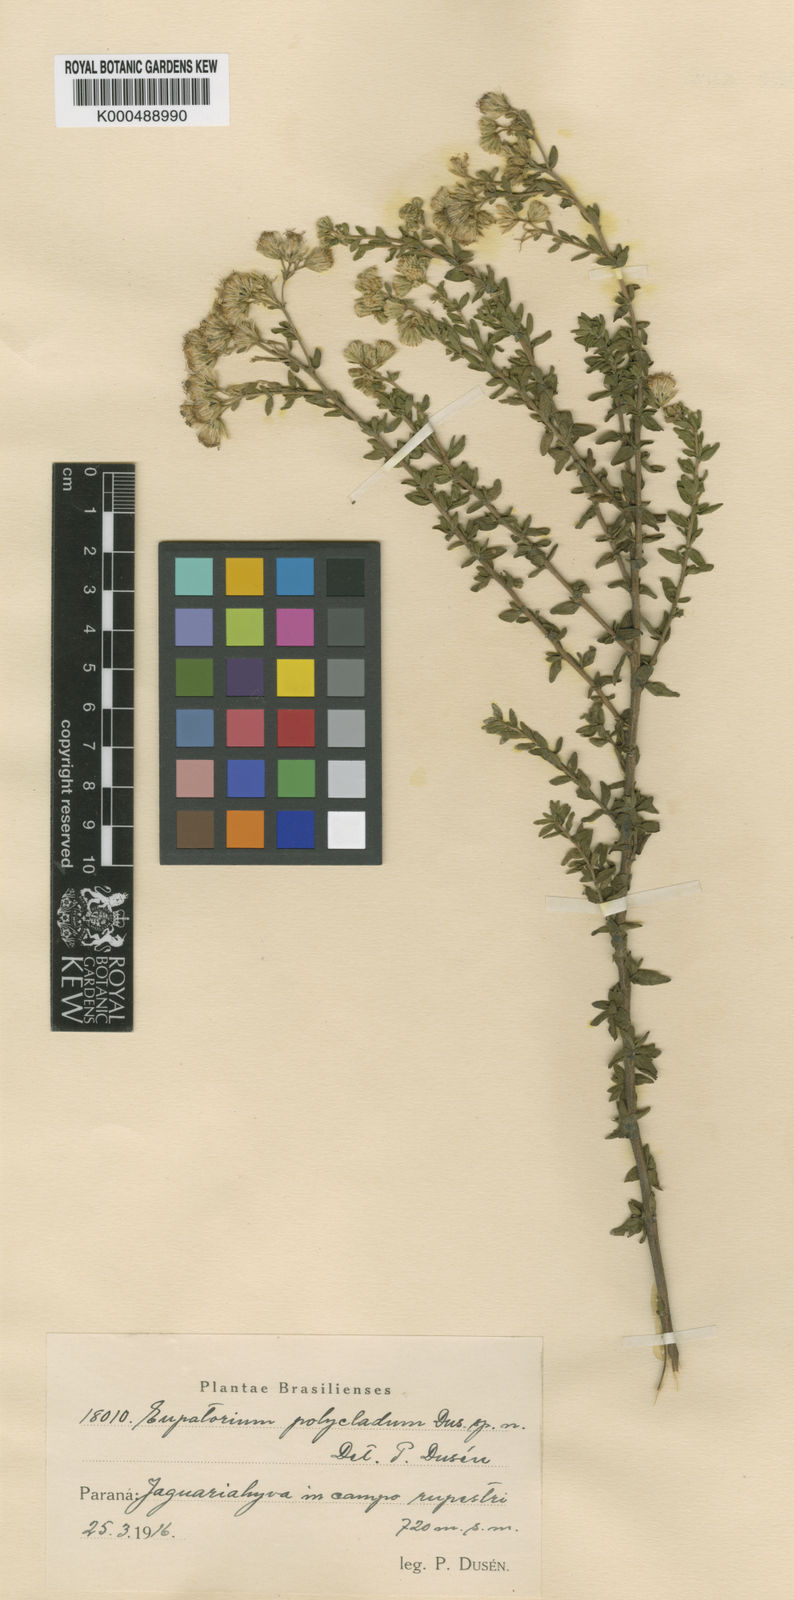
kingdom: Plantae
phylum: Tracheophyta
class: Magnoliopsida
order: Asterales
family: Asteraceae
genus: Hatschbachiella
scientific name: Hatschbachiella polyclada
